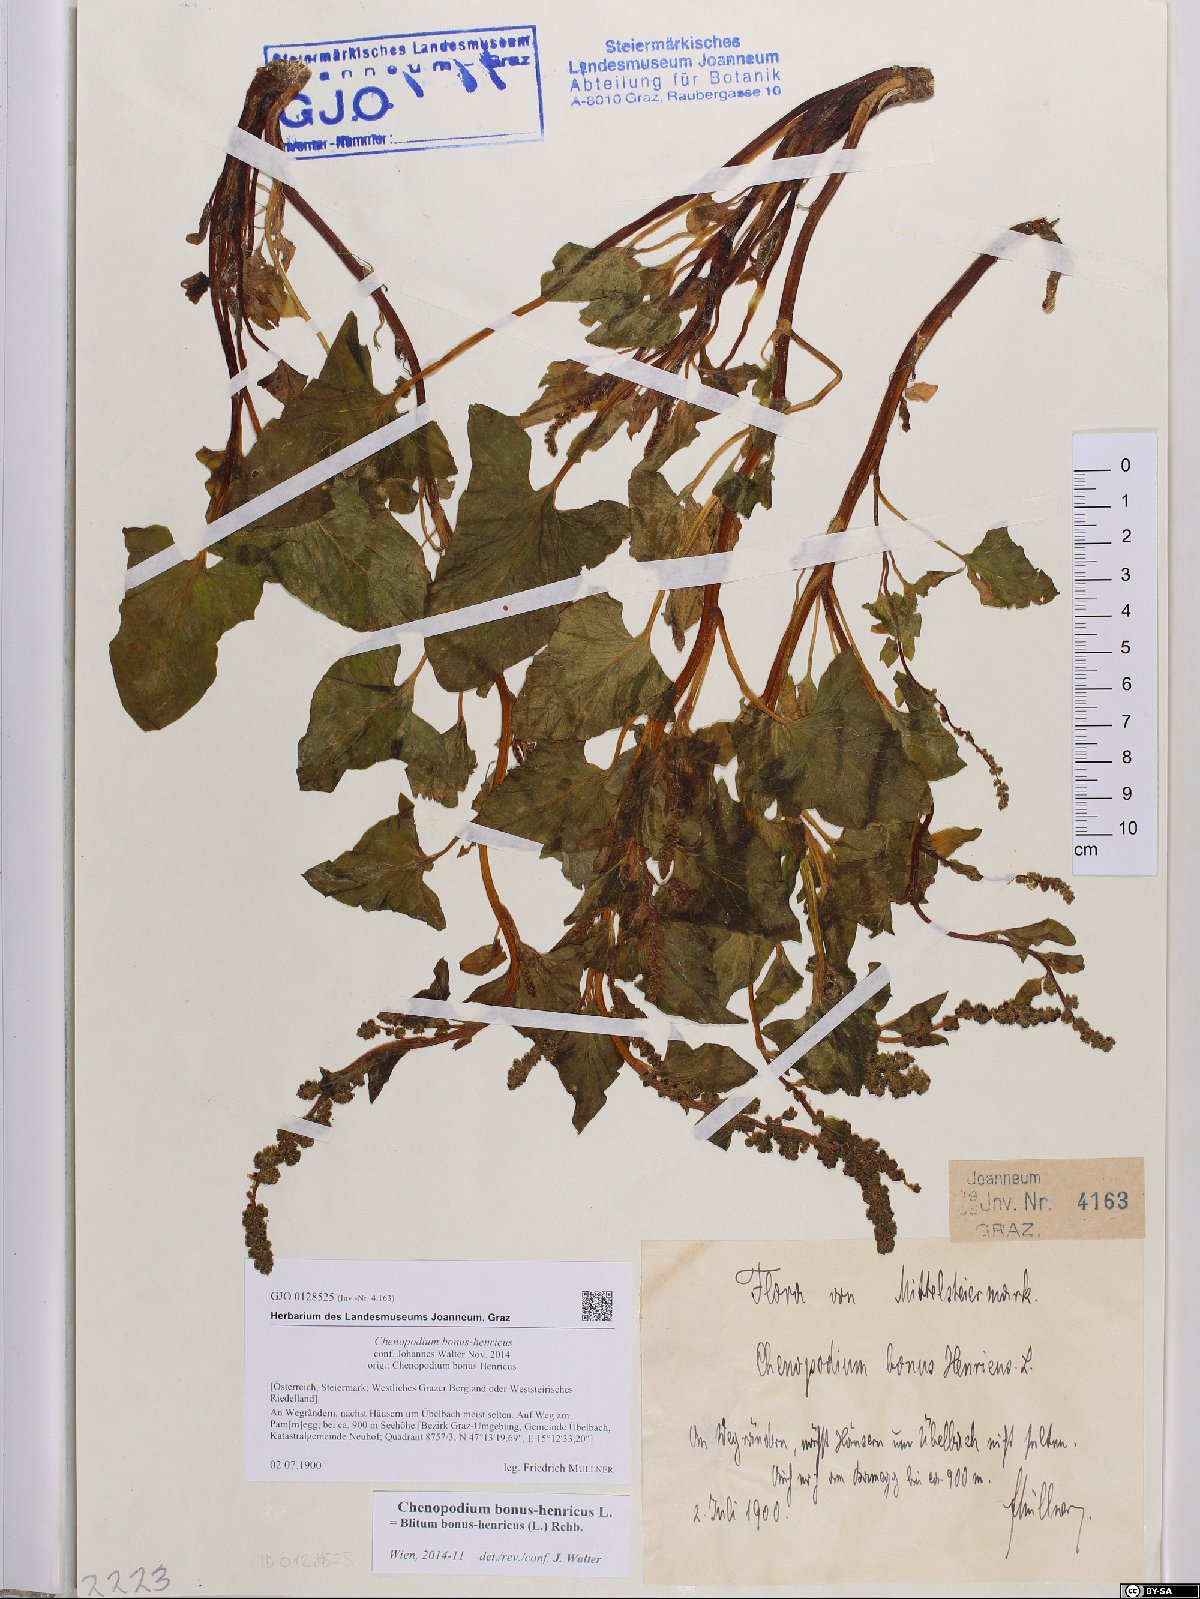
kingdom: Plantae
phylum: Tracheophyta
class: Magnoliopsida
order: Caryophyllales
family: Amaranthaceae
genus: Blitum
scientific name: Blitum bonus-henricus
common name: Good king henry
